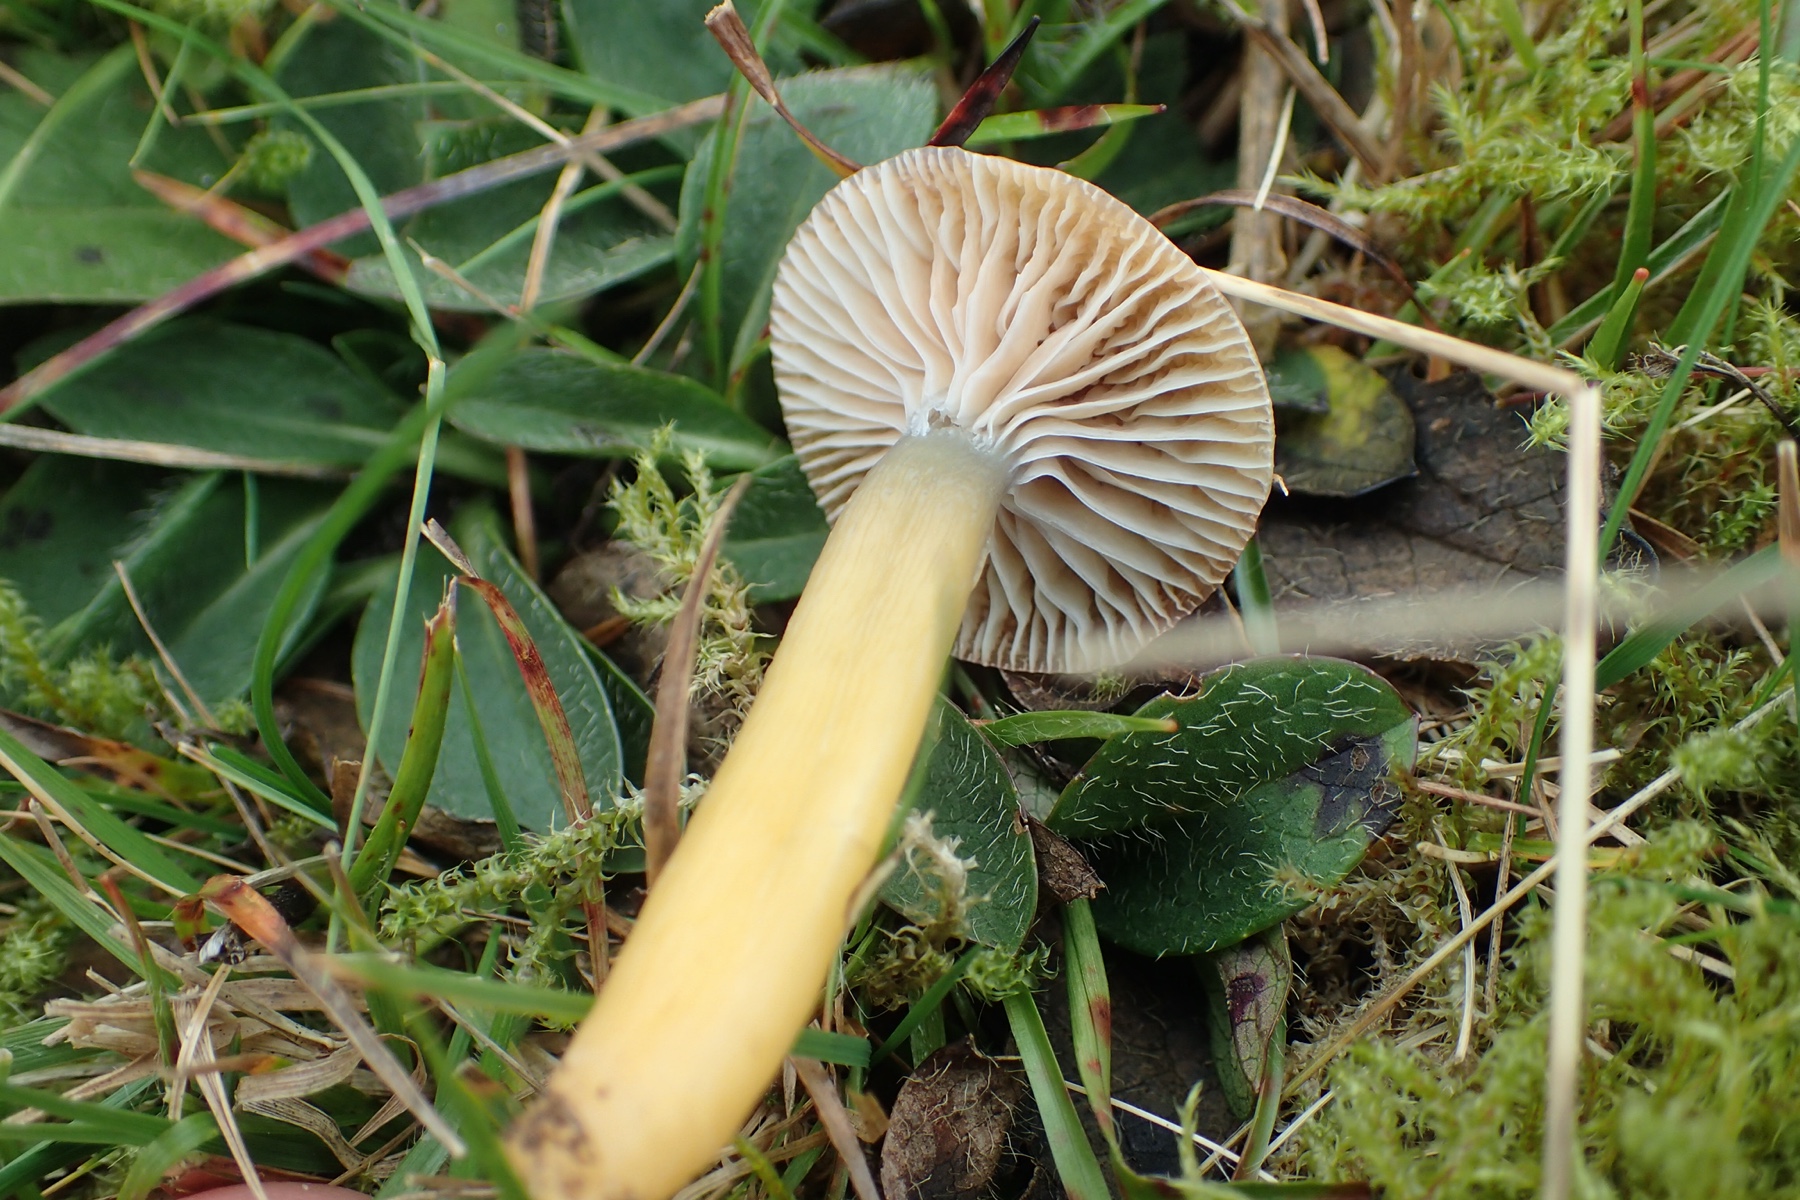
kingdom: Fungi
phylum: Basidiomycota
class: Agaricomycetes
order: Agaricales
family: Hygrophoraceae
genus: Gliophorus
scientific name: Gliophorus laetus
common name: brusk-vokshat
